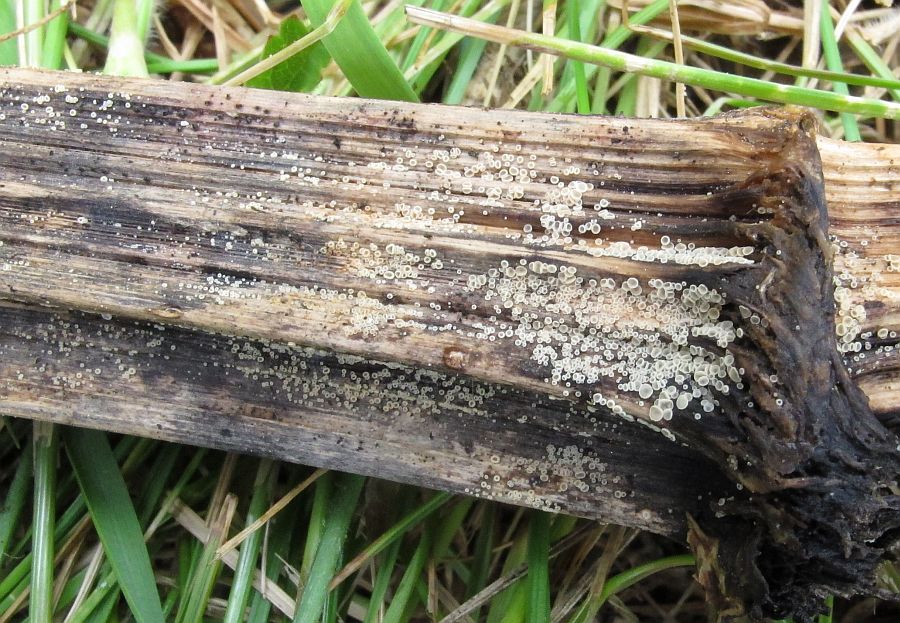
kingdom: Fungi
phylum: Ascomycota
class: Leotiomycetes
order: Helotiales
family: Hyaloscyphaceae
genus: Cistella
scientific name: Cistella hungarica
